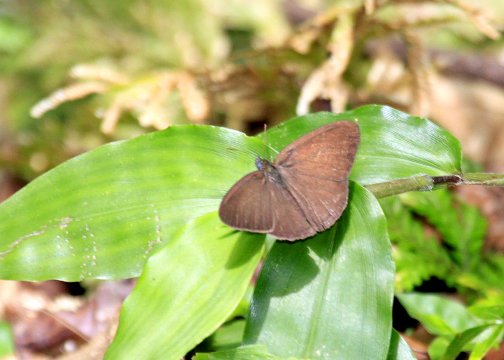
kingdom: Animalia
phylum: Arthropoda
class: Insecta
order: Lepidoptera
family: Nymphalidae
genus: Euptychia
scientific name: Euptychia
